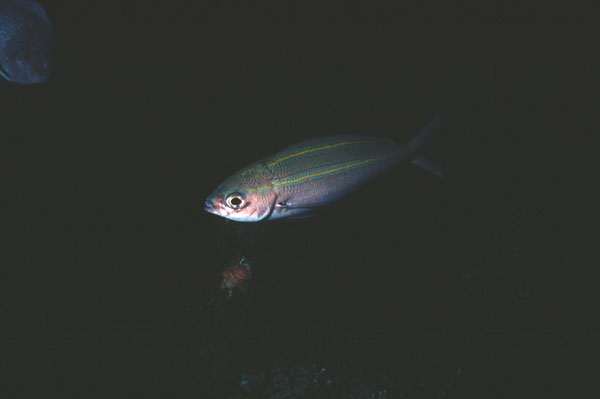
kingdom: Animalia
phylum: Chordata
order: Perciformes
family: Caesionidae
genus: Pterocaesio
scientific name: Pterocaesio digramma
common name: Double-lined fusilier
